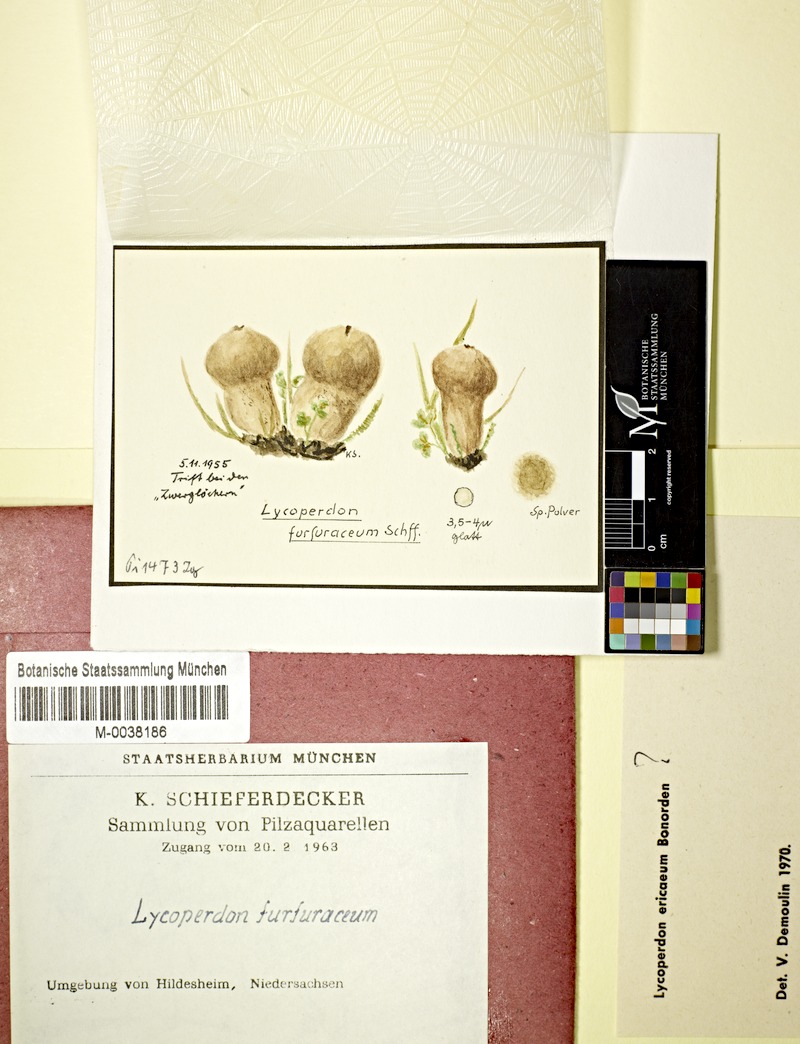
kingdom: Fungi
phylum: Basidiomycota
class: Agaricomycetes
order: Agaricales
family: Lycoperdaceae
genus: Bovista
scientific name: Bovista aestivalis
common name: Deceiving bovist
